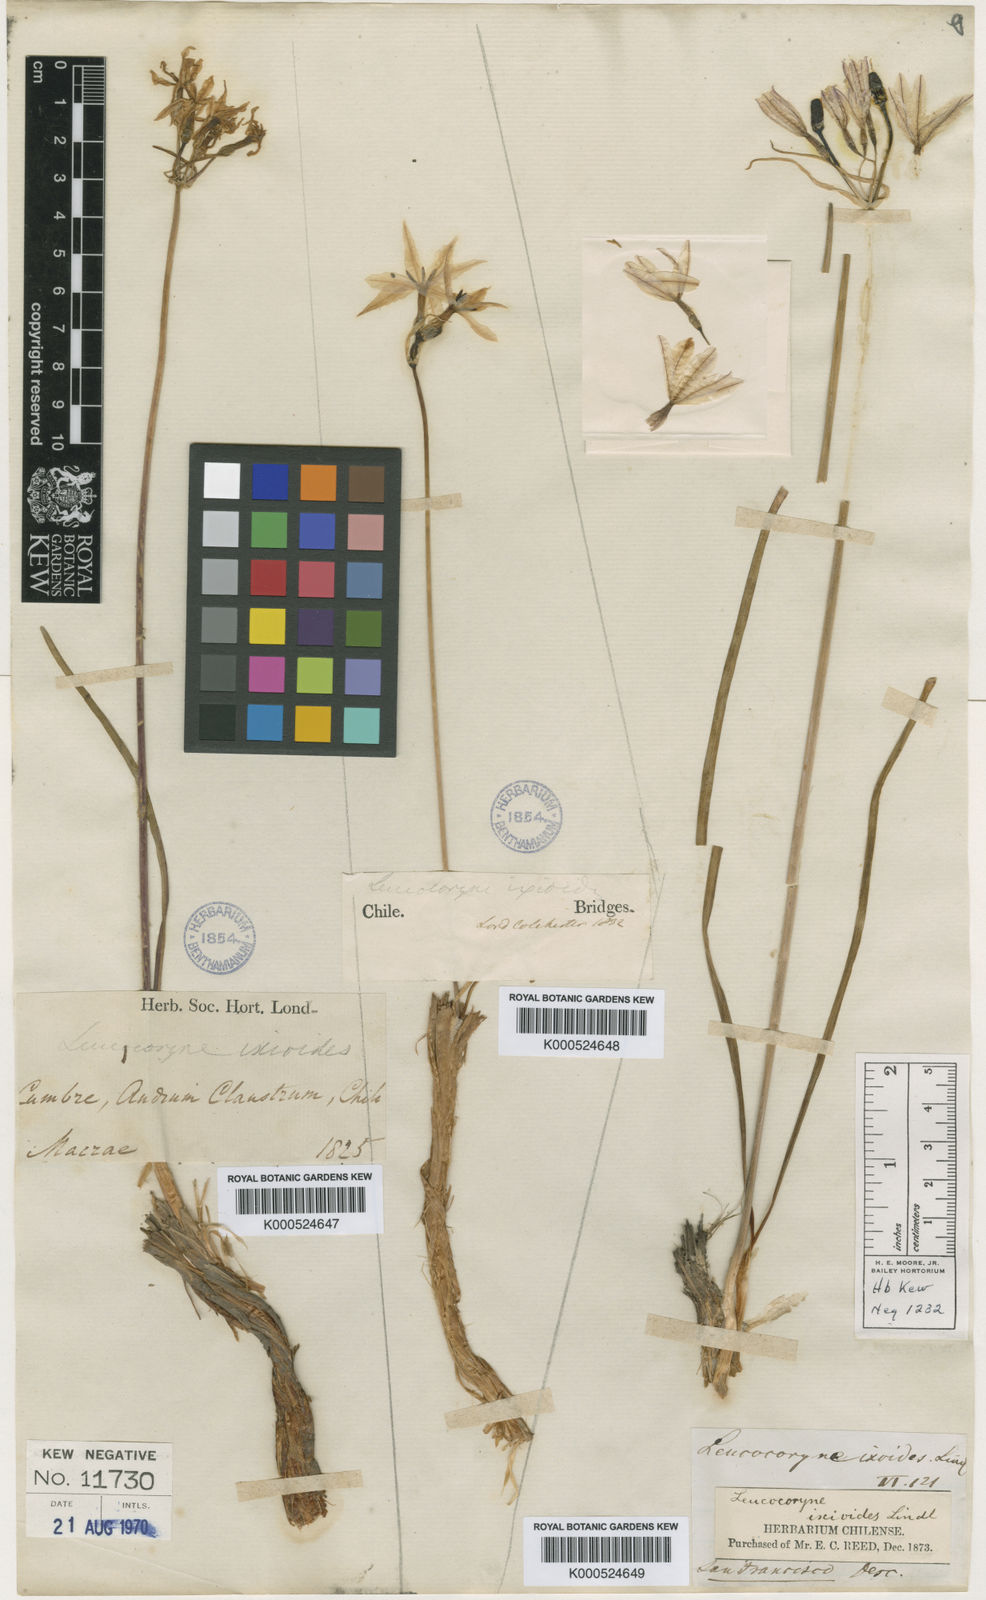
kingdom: Plantae
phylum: Tracheophyta
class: Liliopsida
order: Asparagales
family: Amaryllidaceae
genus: Leucocoryne
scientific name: Leucocoryne ixioides
